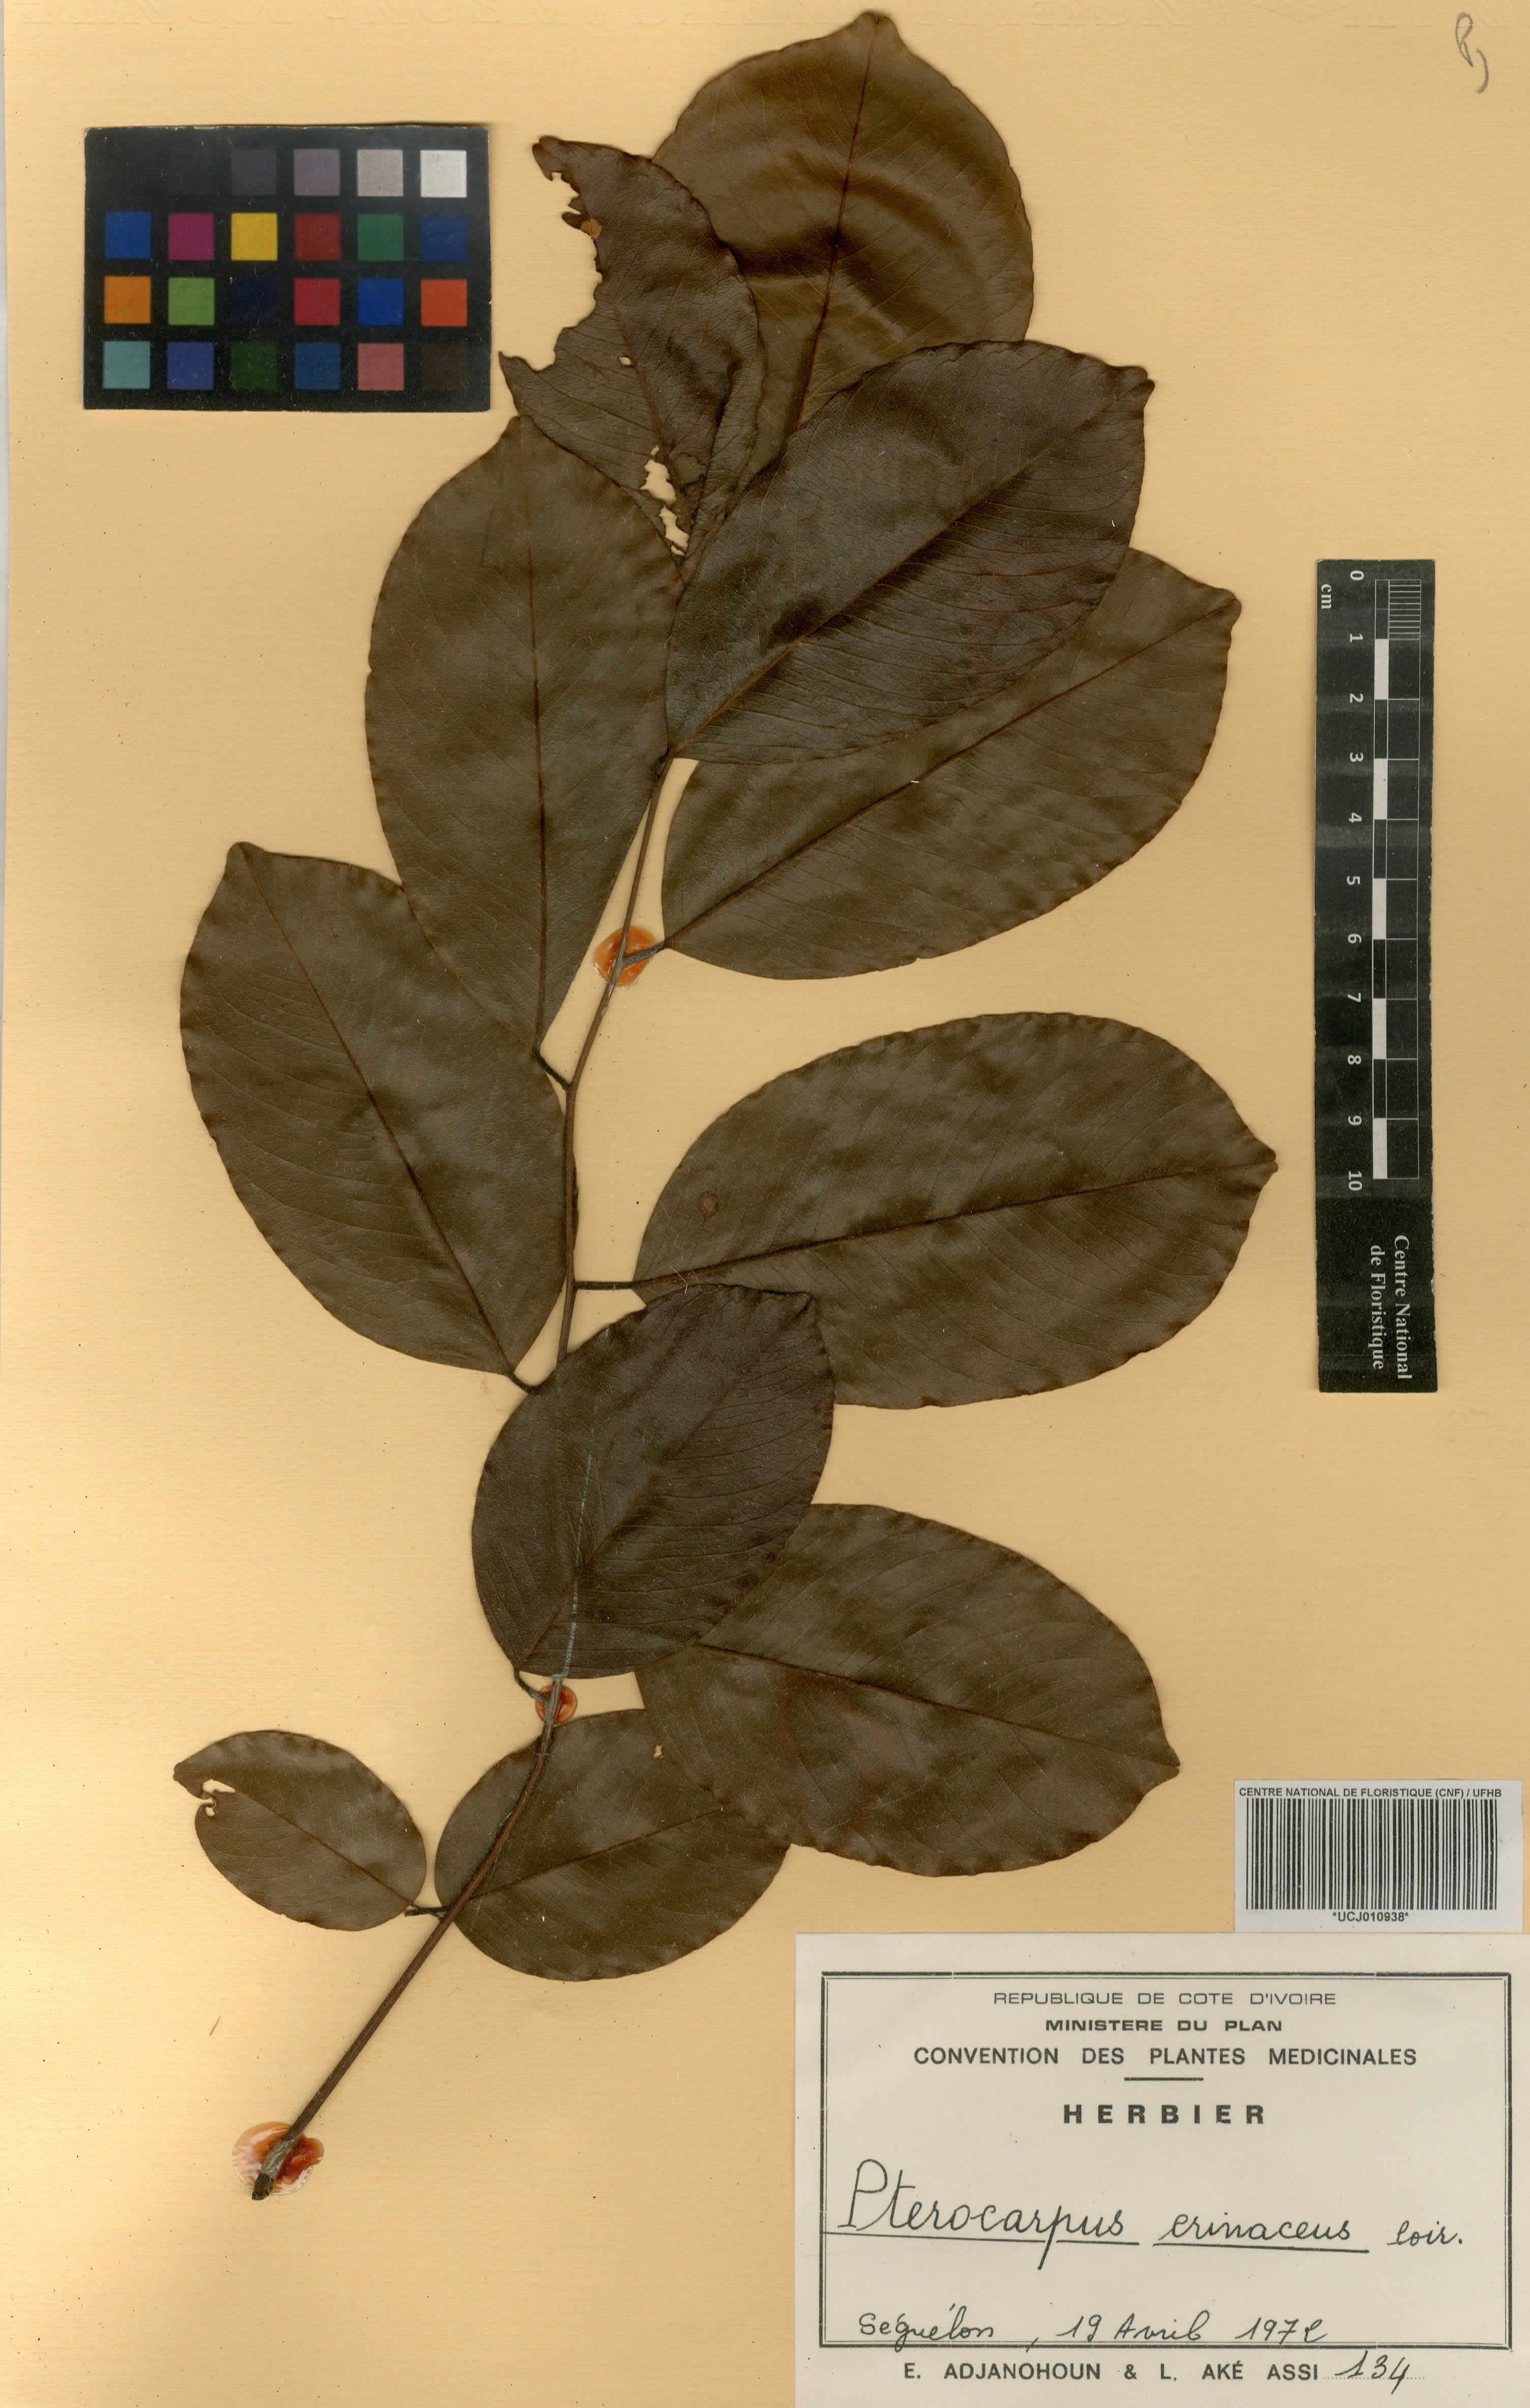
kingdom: Plantae
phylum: Tracheophyta
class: Magnoliopsida
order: Fabales
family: Fabaceae
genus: Pterocarpus
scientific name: Pterocarpus erinaceus
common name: African rosewood
